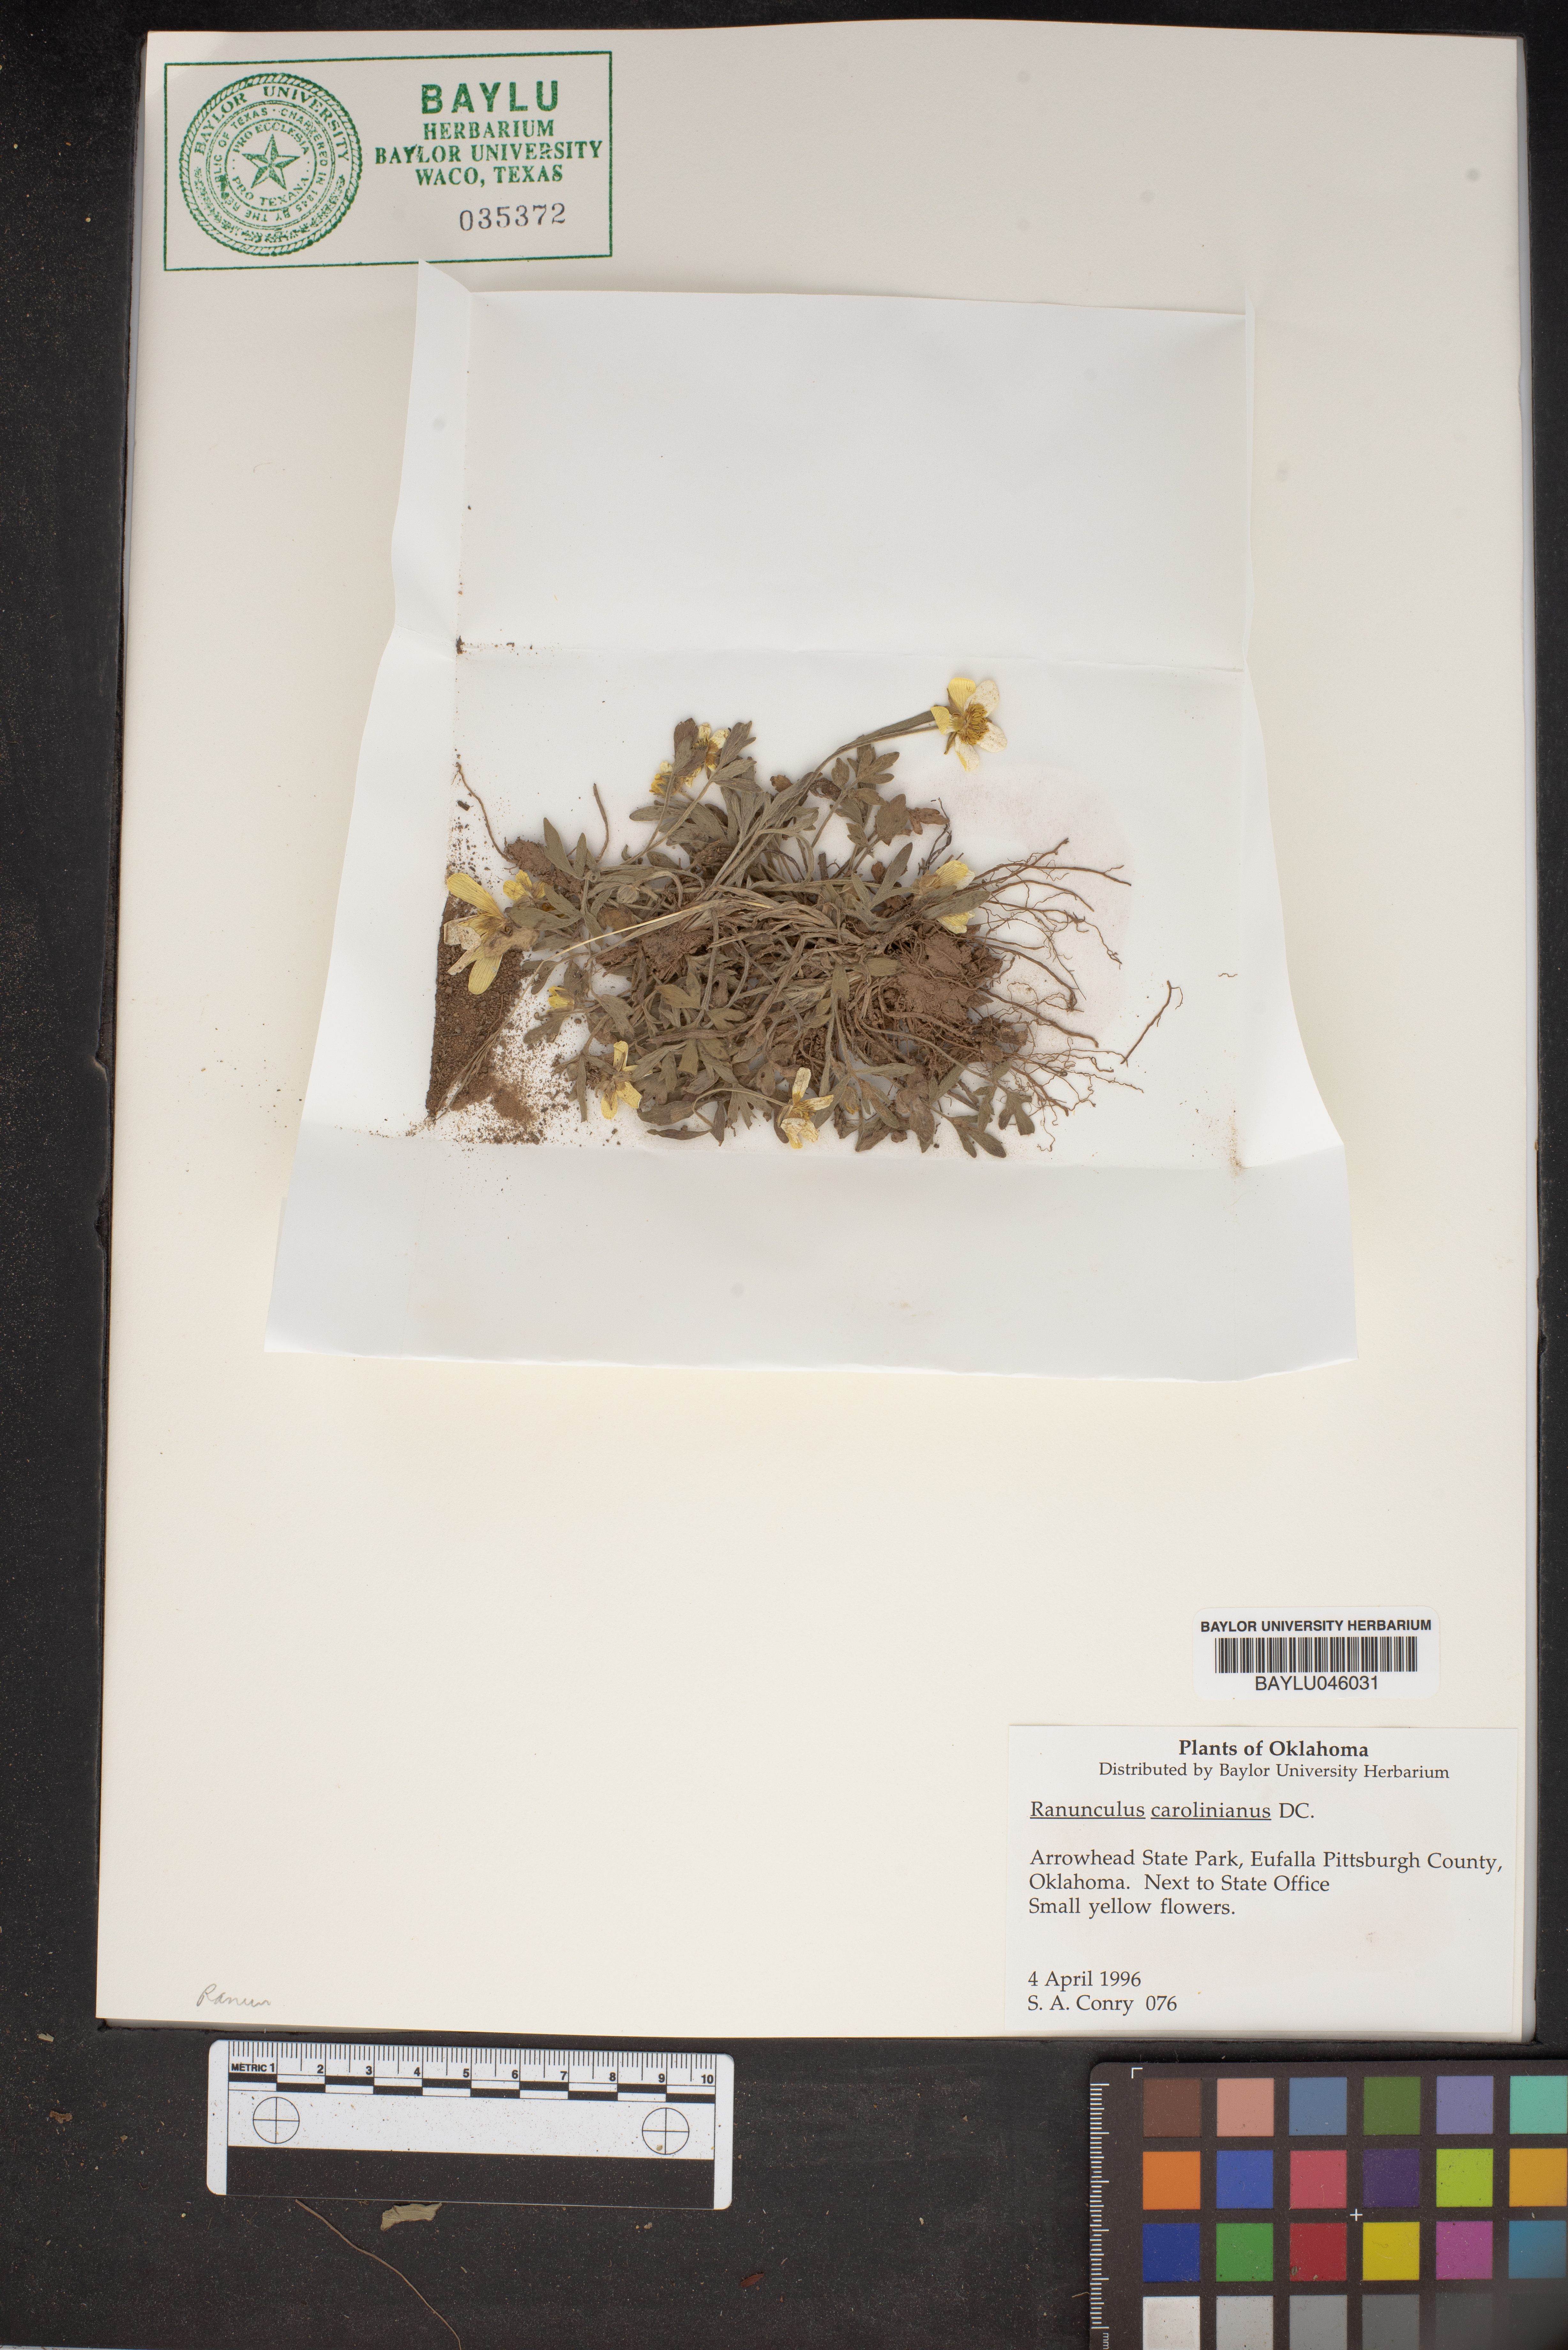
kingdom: Plantae
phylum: Tracheophyta
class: Magnoliopsida
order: Ranunculales
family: Ranunculaceae
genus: Ranunculus
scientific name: Ranunculus hispidus
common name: Bristly buttercup
